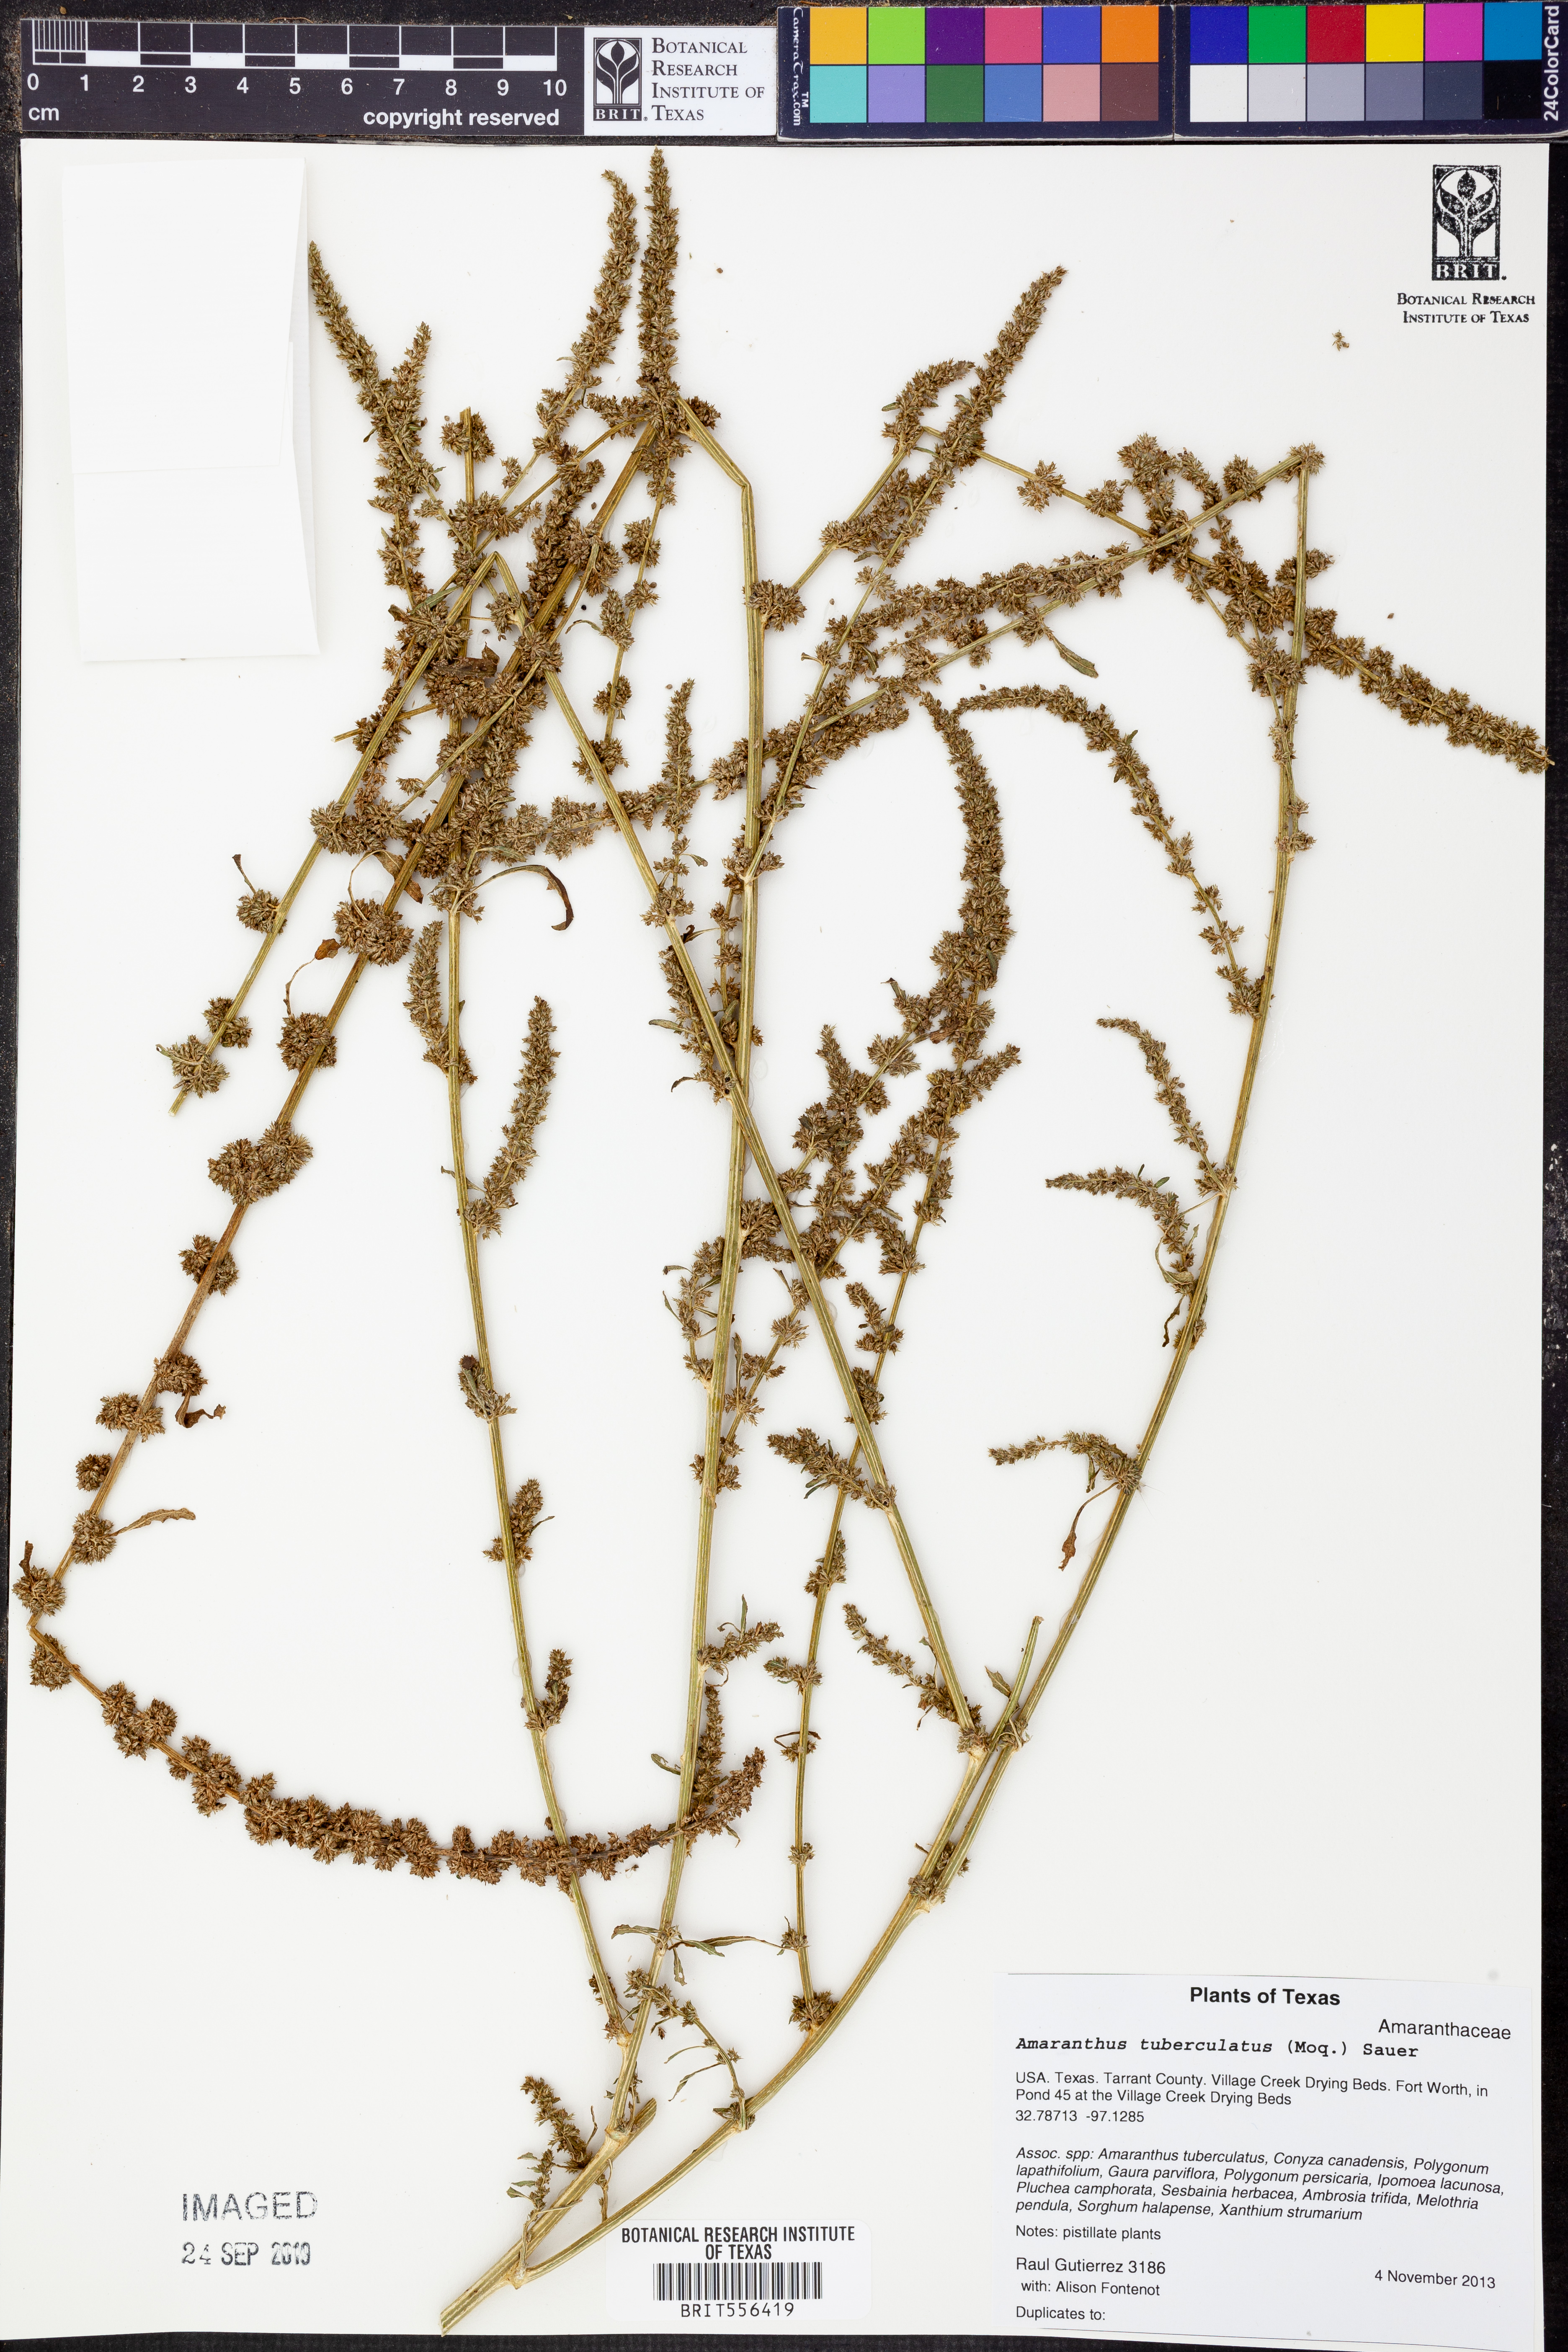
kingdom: Plantae
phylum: Tracheophyta
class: Magnoliopsida
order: Caryophyllales
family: Amaranthaceae
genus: Amaranthus
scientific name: Amaranthus tuberculatus
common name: Rough-fruit amaranth
